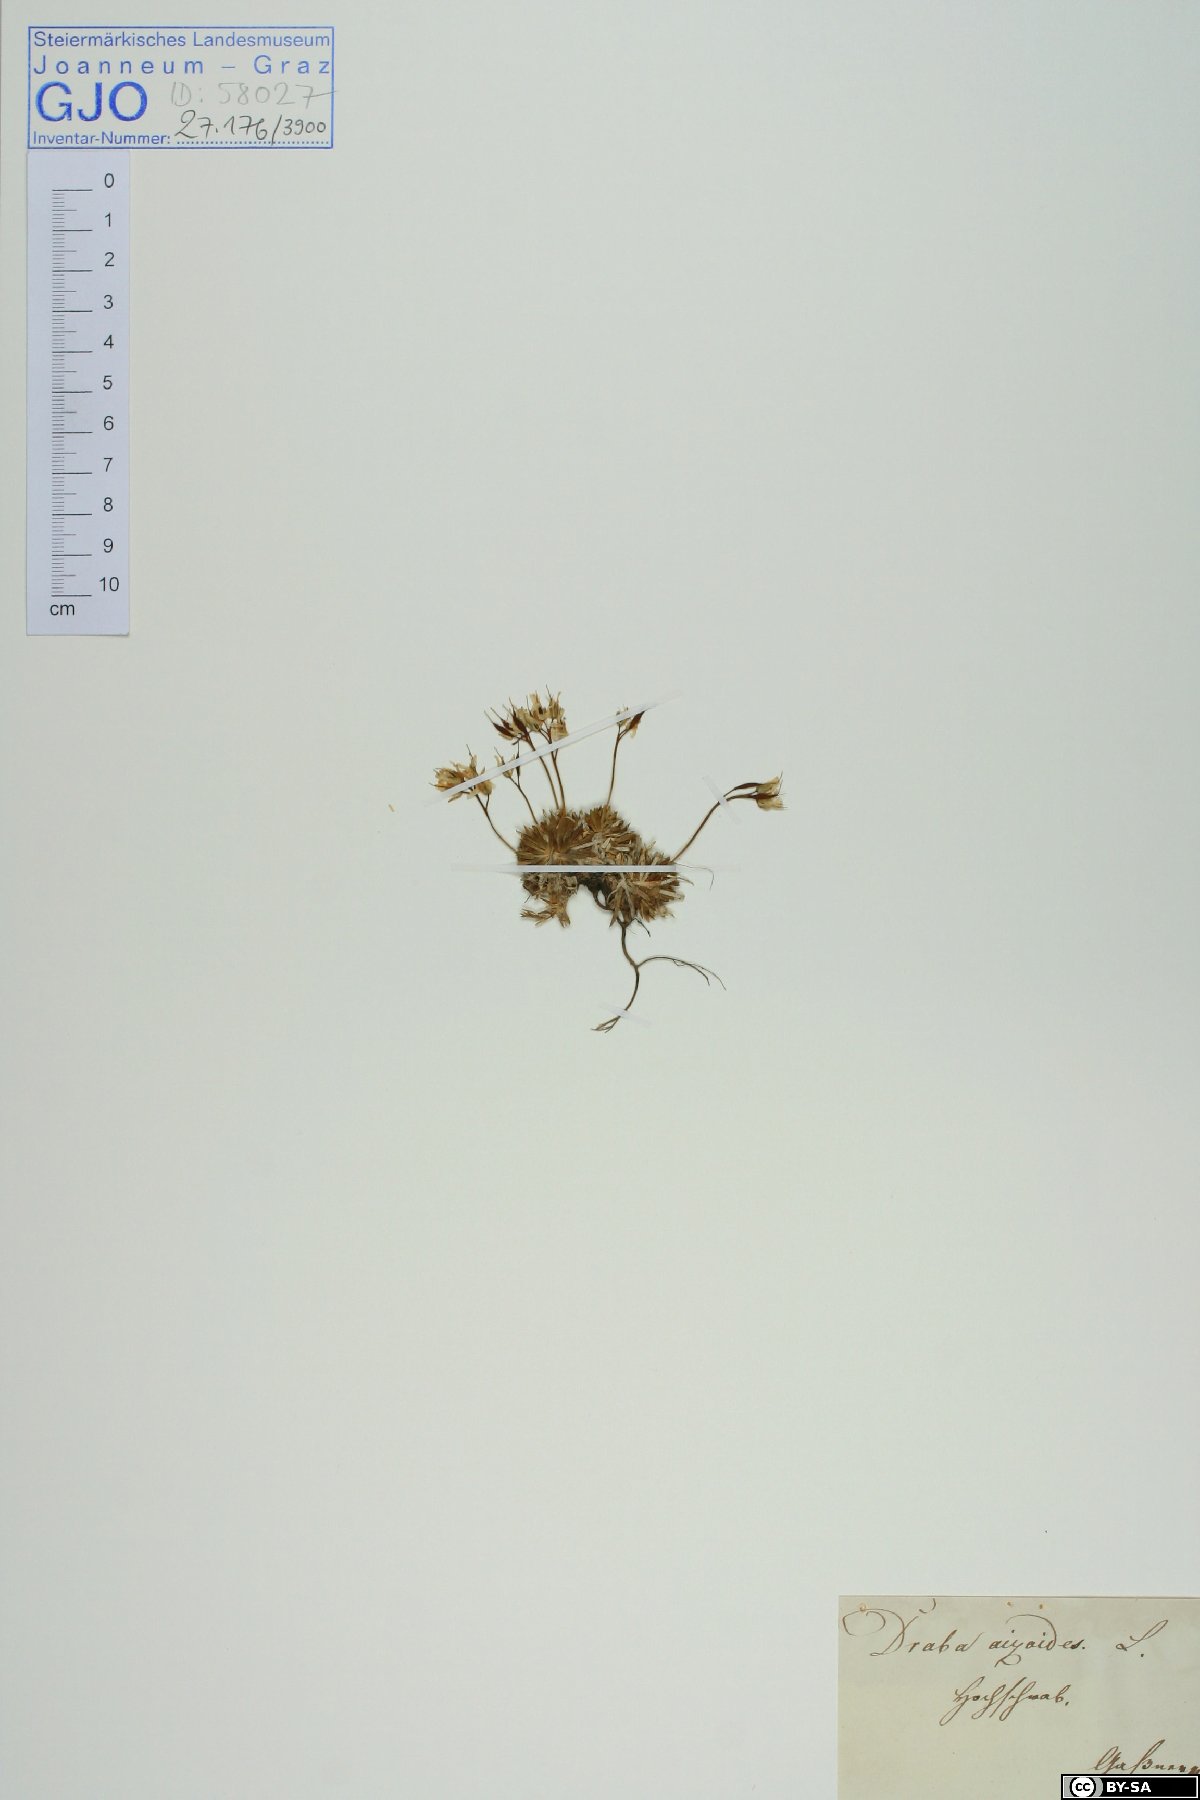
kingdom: Plantae
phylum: Tracheophyta
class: Magnoliopsida
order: Brassicales
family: Brassicaceae
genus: Draba
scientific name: Draba aizoides
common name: Yellow whitlowgrass
